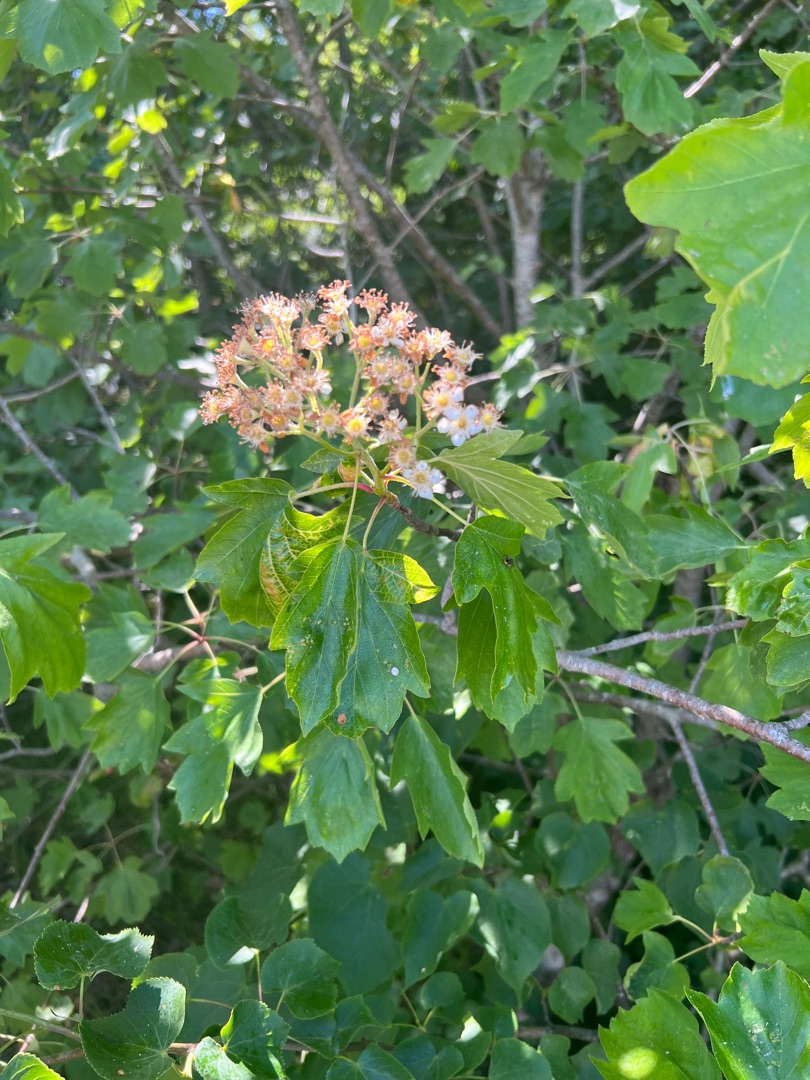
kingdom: Plantae
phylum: Tracheophyta
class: Magnoliopsida
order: Rosales
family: Rosaceae
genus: Torminalis
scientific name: Torminalis glaberrima
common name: Tarmvrid-røn
